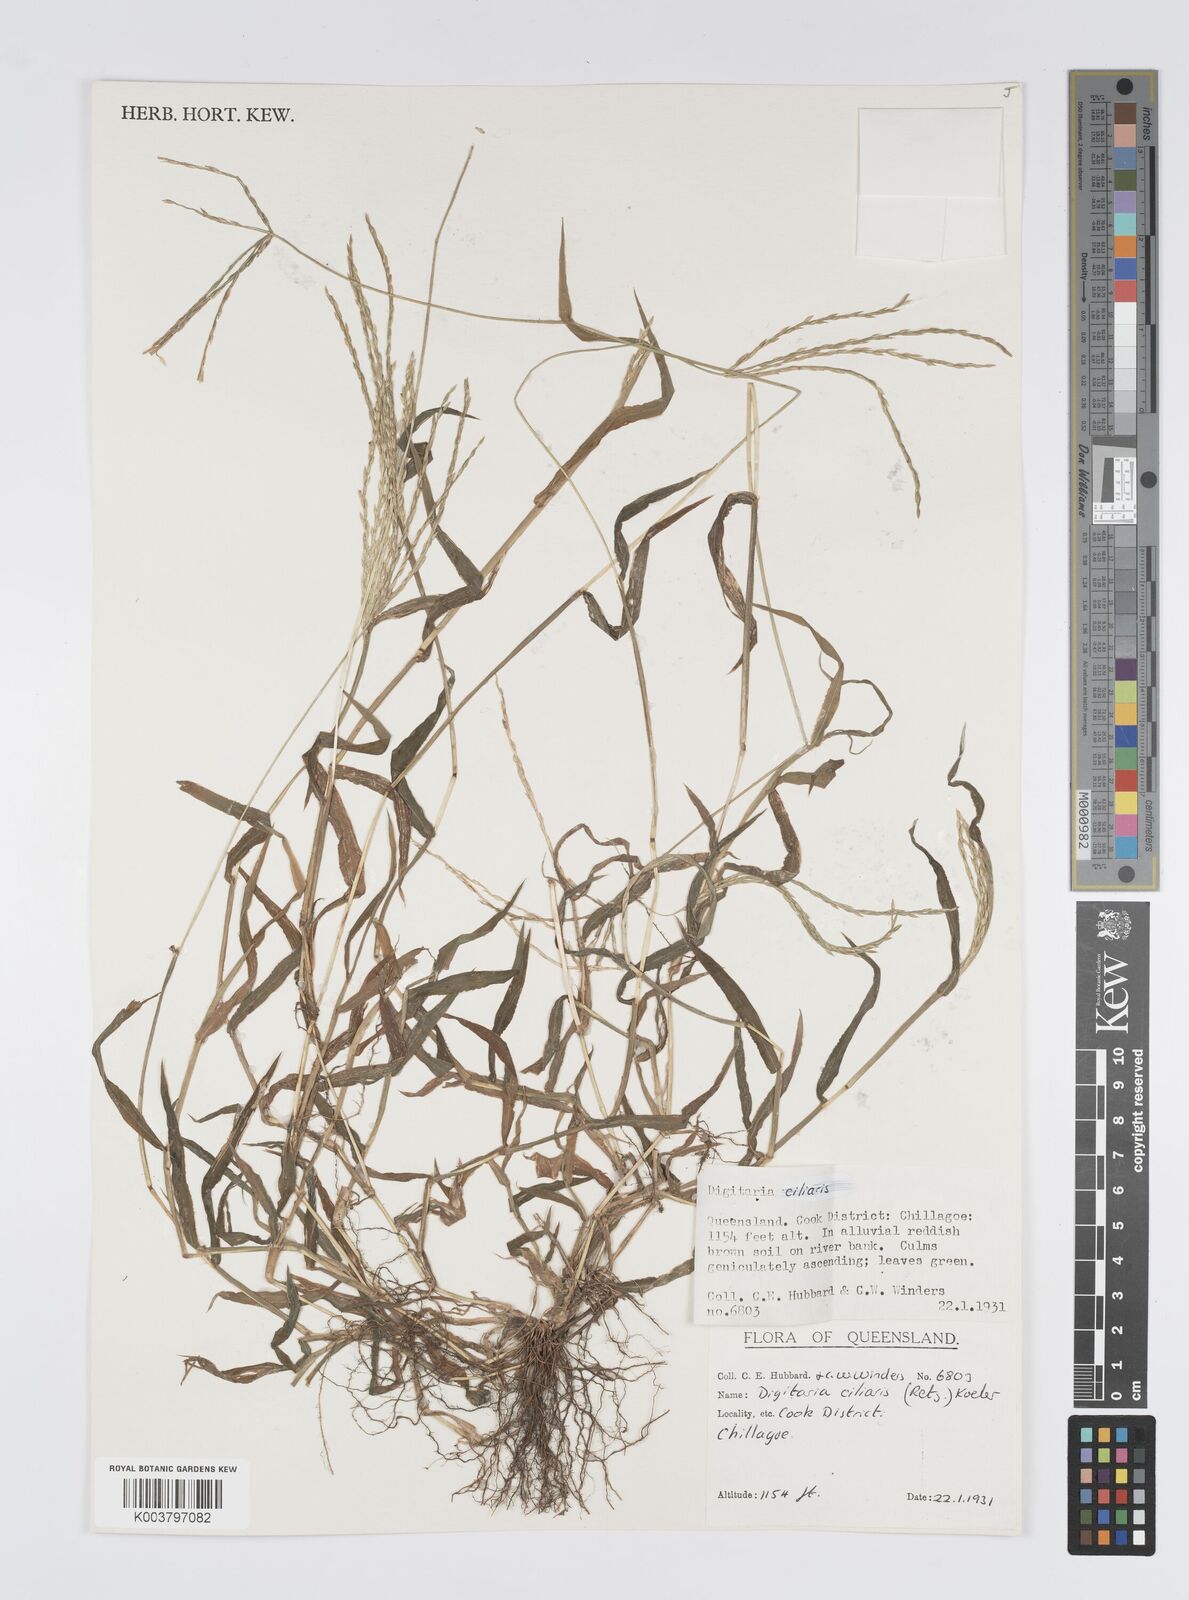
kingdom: Plantae
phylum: Tracheophyta
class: Liliopsida
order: Poales
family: Poaceae
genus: Digitaria
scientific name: Digitaria ciliaris
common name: Tropical finger-grass
